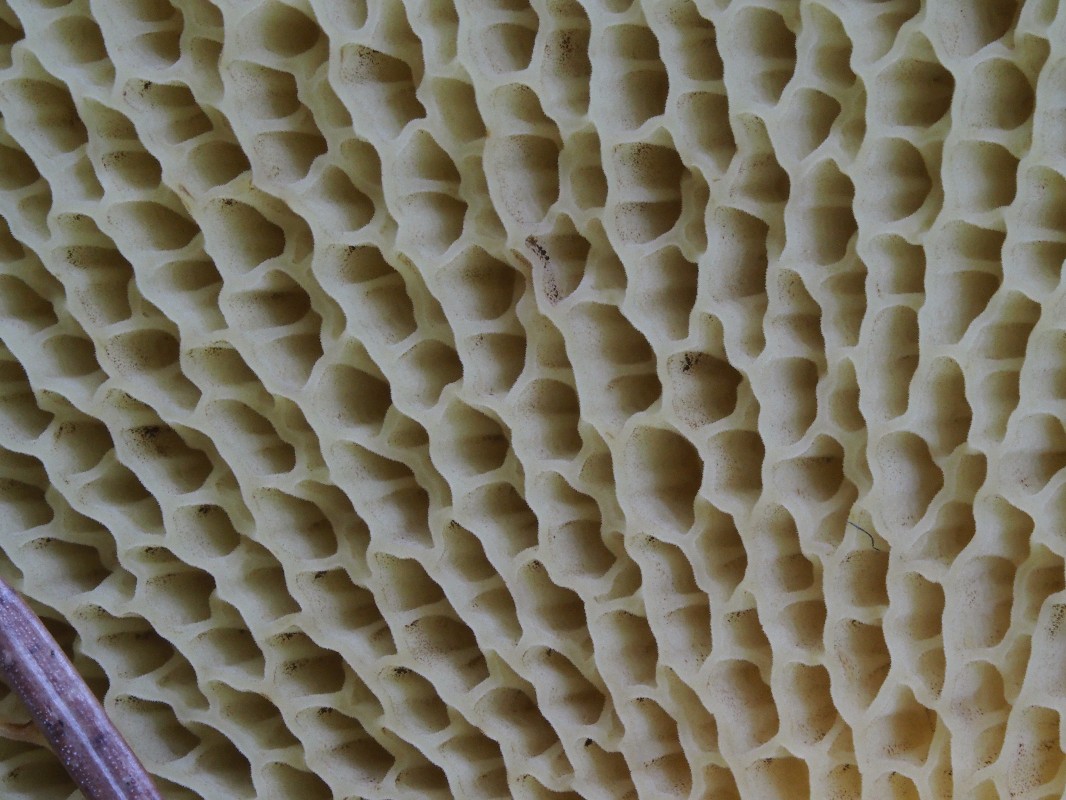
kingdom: Fungi
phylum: Basidiomycota
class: Agaricomycetes
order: Boletales
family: Suillaceae
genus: Suillus
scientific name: Suillus cavipes
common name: hulstokket slimrørhat
